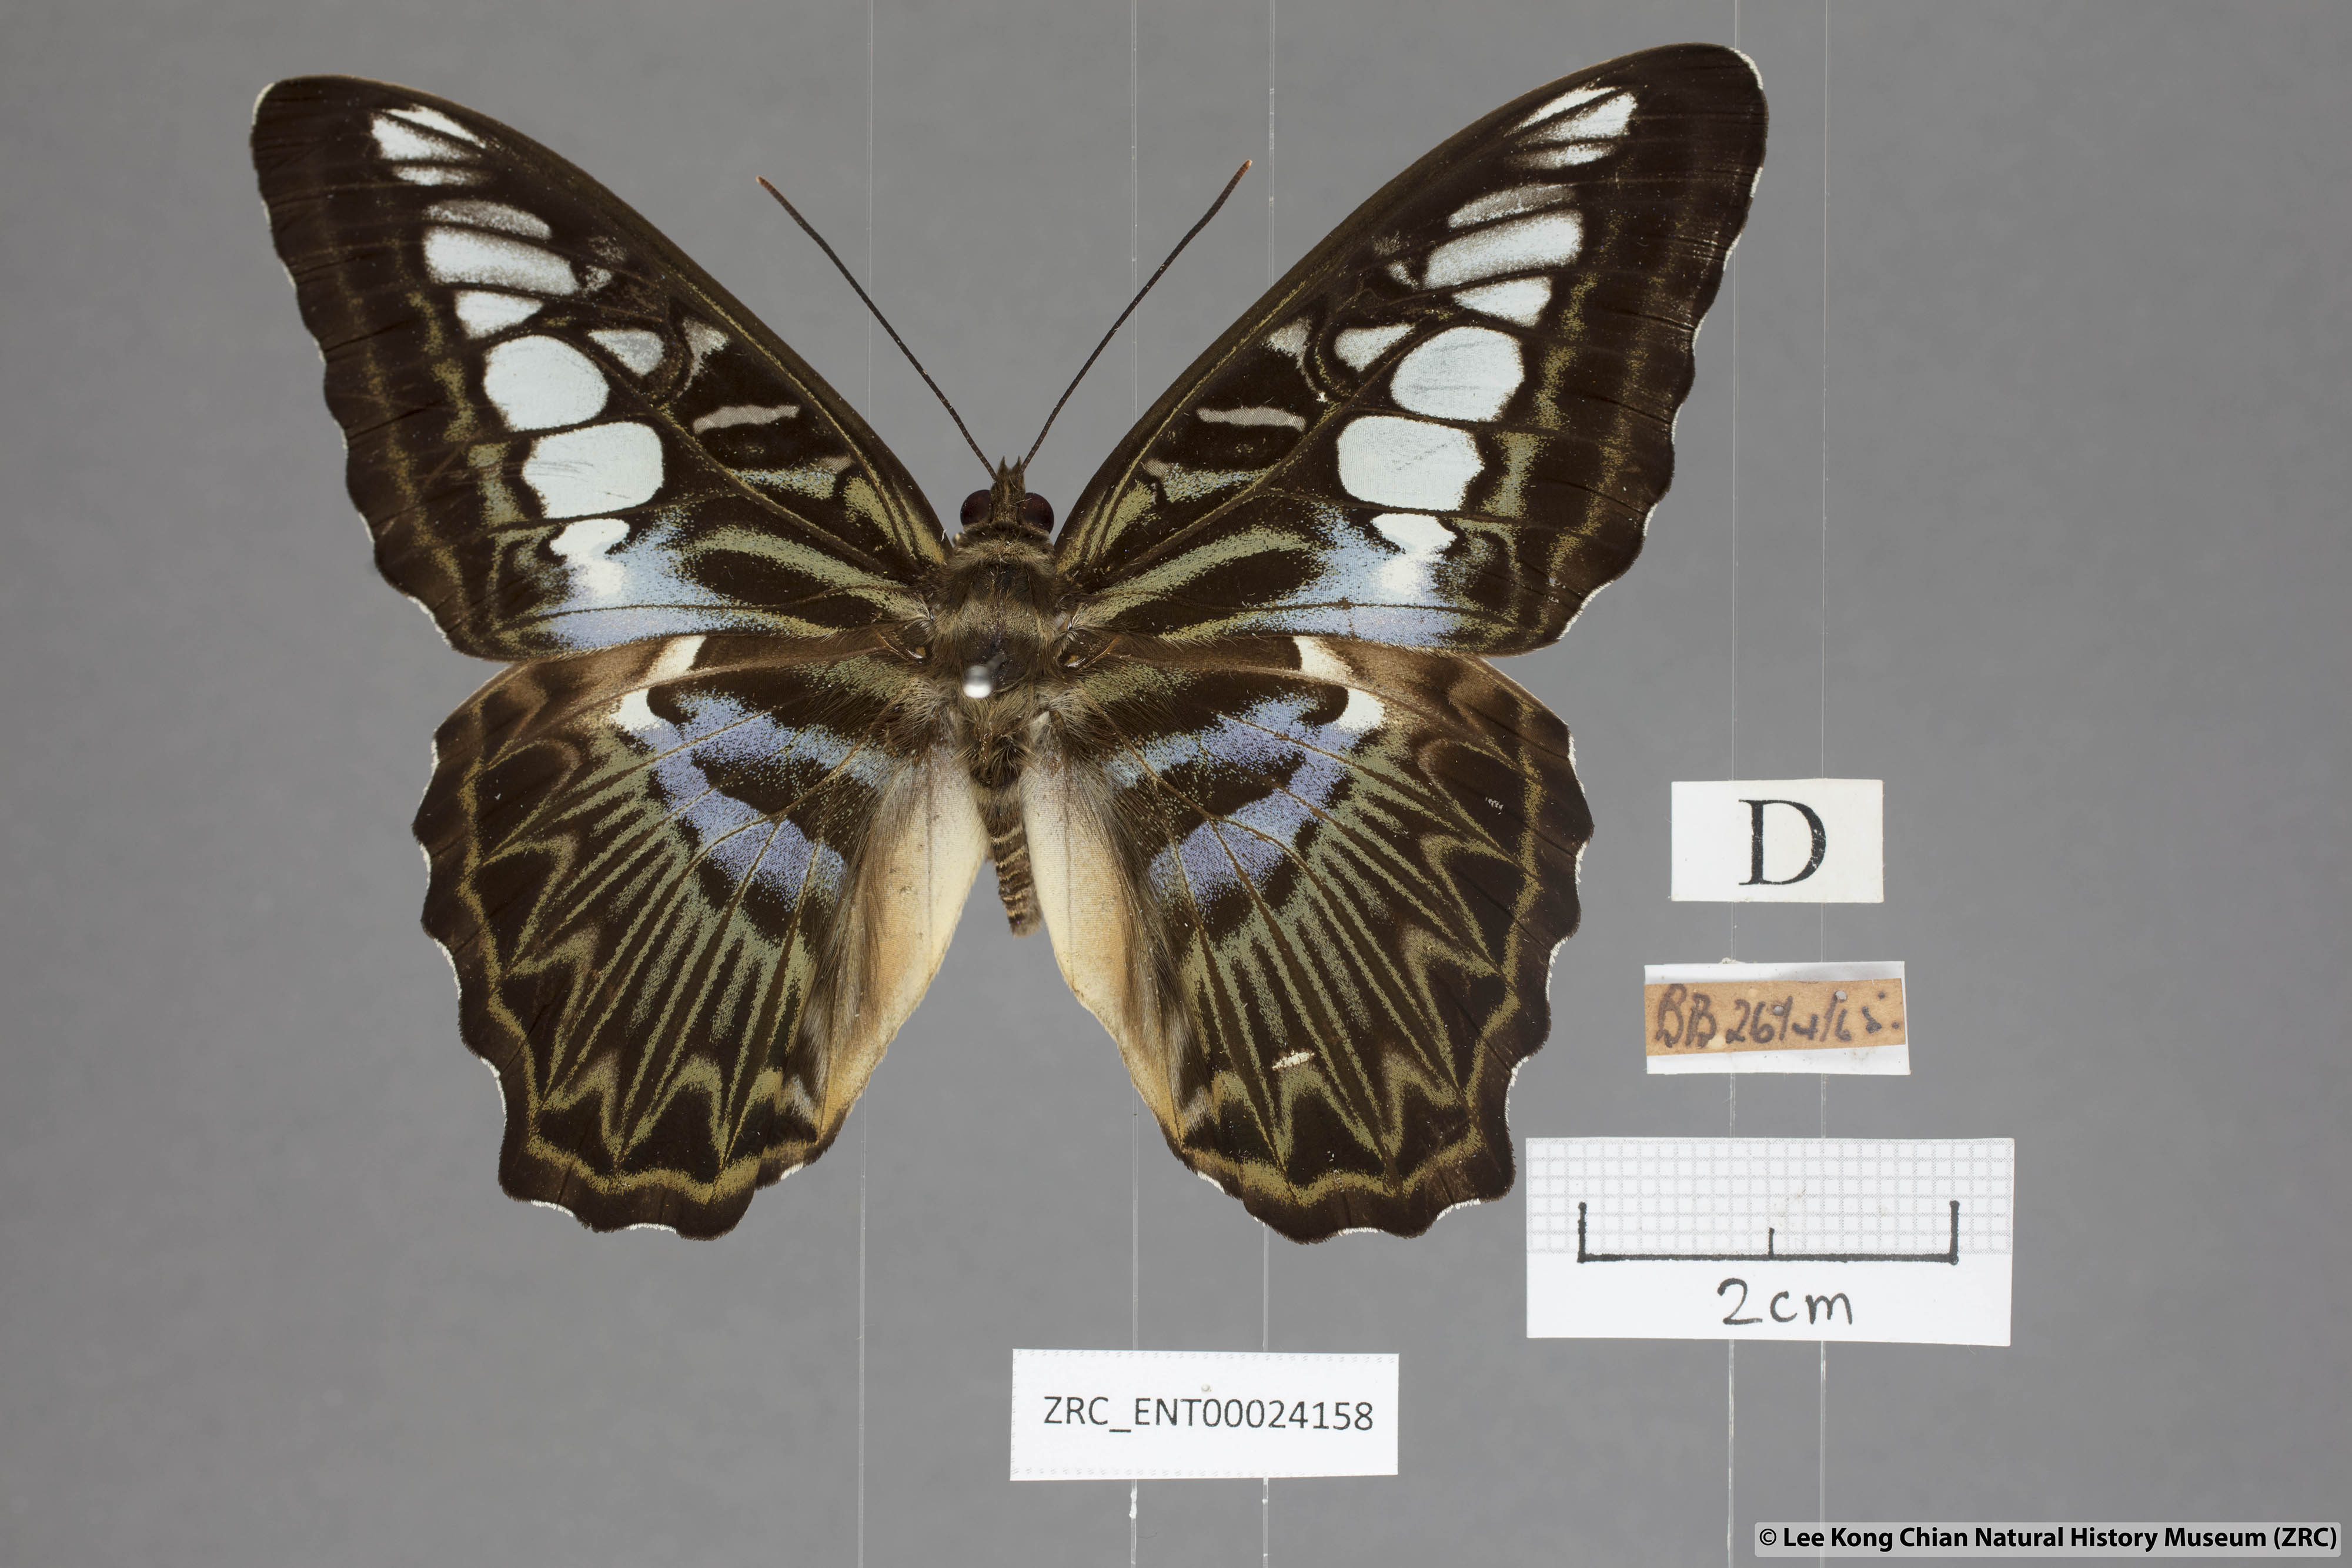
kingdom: Animalia
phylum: Arthropoda
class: Insecta
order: Lepidoptera
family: Nymphalidae
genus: Kallima
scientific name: Kallima sylvia
